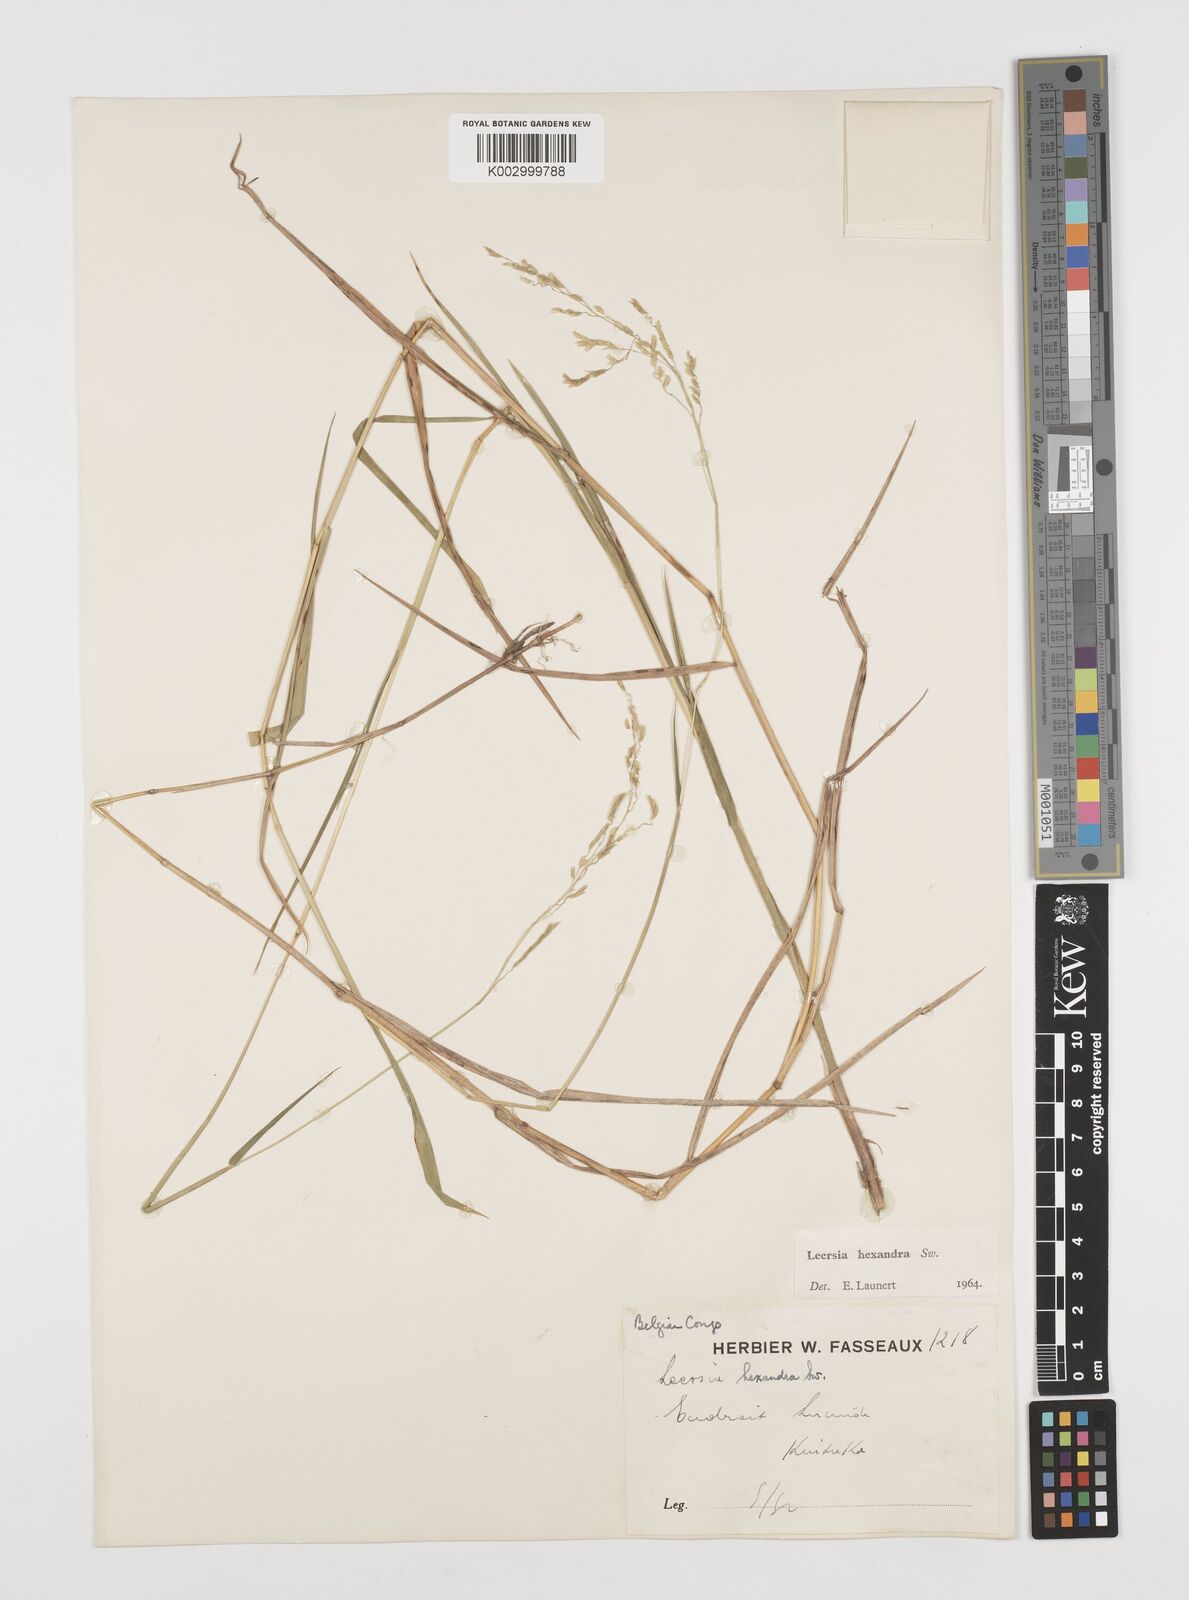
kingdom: Plantae
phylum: Tracheophyta
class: Liliopsida
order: Poales
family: Poaceae
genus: Leersia
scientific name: Leersia hexandra
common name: Southern cut grass
